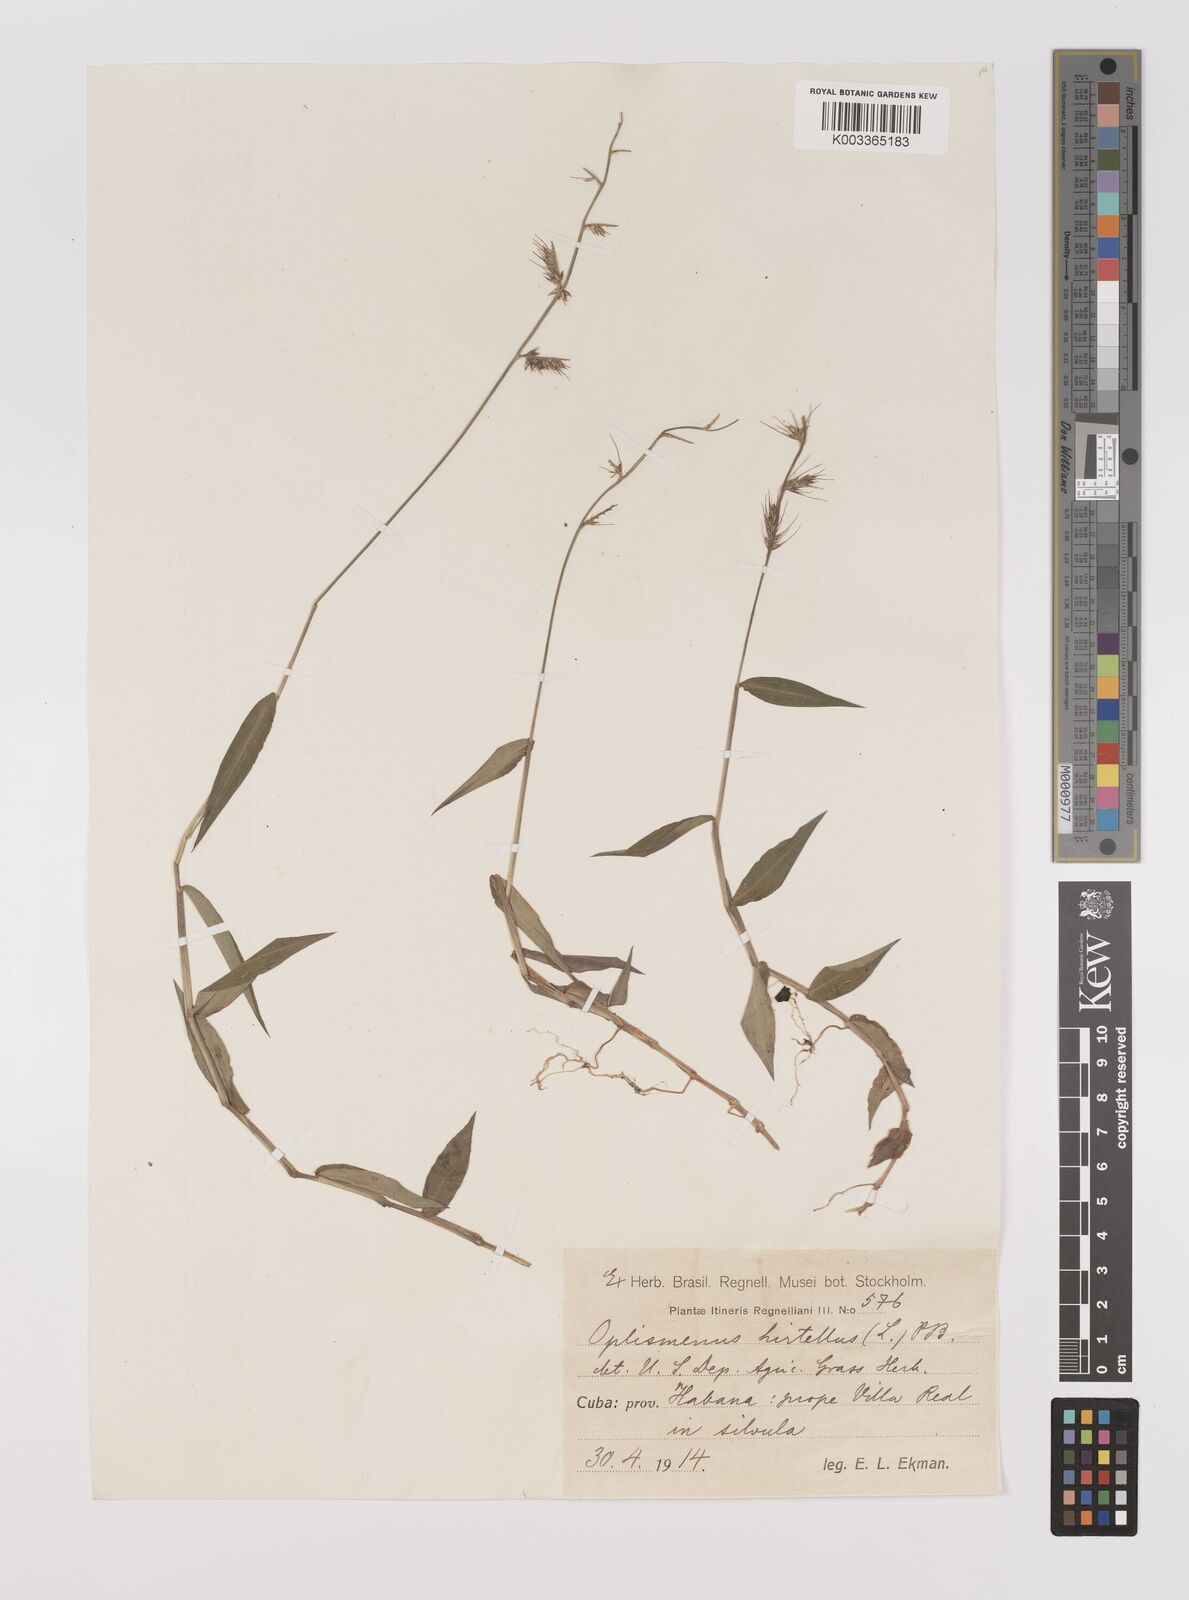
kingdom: Plantae
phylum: Tracheophyta
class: Liliopsida
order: Poales
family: Poaceae
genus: Oplismenus
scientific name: Oplismenus hirtellus
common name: Basketgrass
